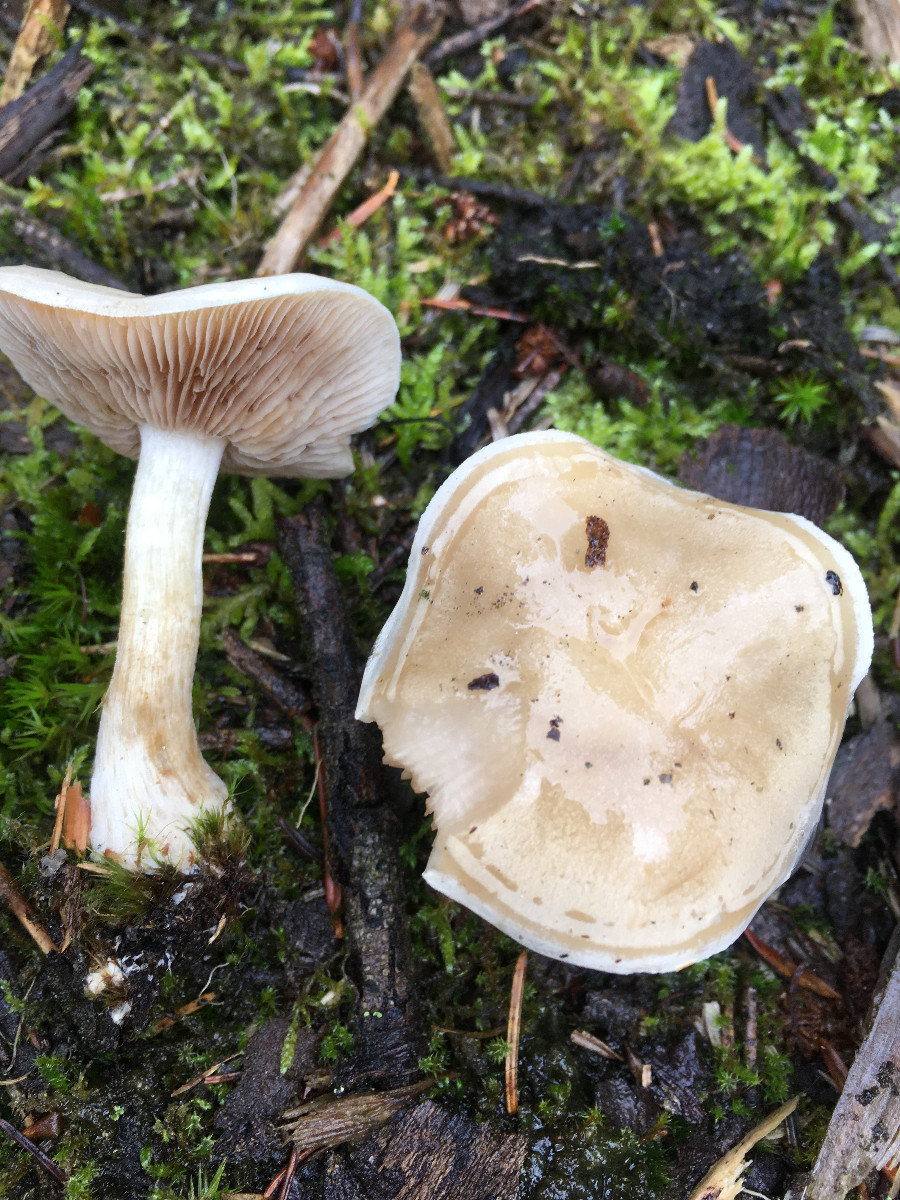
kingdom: Fungi
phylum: Basidiomycota
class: Agaricomycetes
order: Agaricales
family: Hymenogastraceae
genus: Hebeloma
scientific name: Hebeloma
